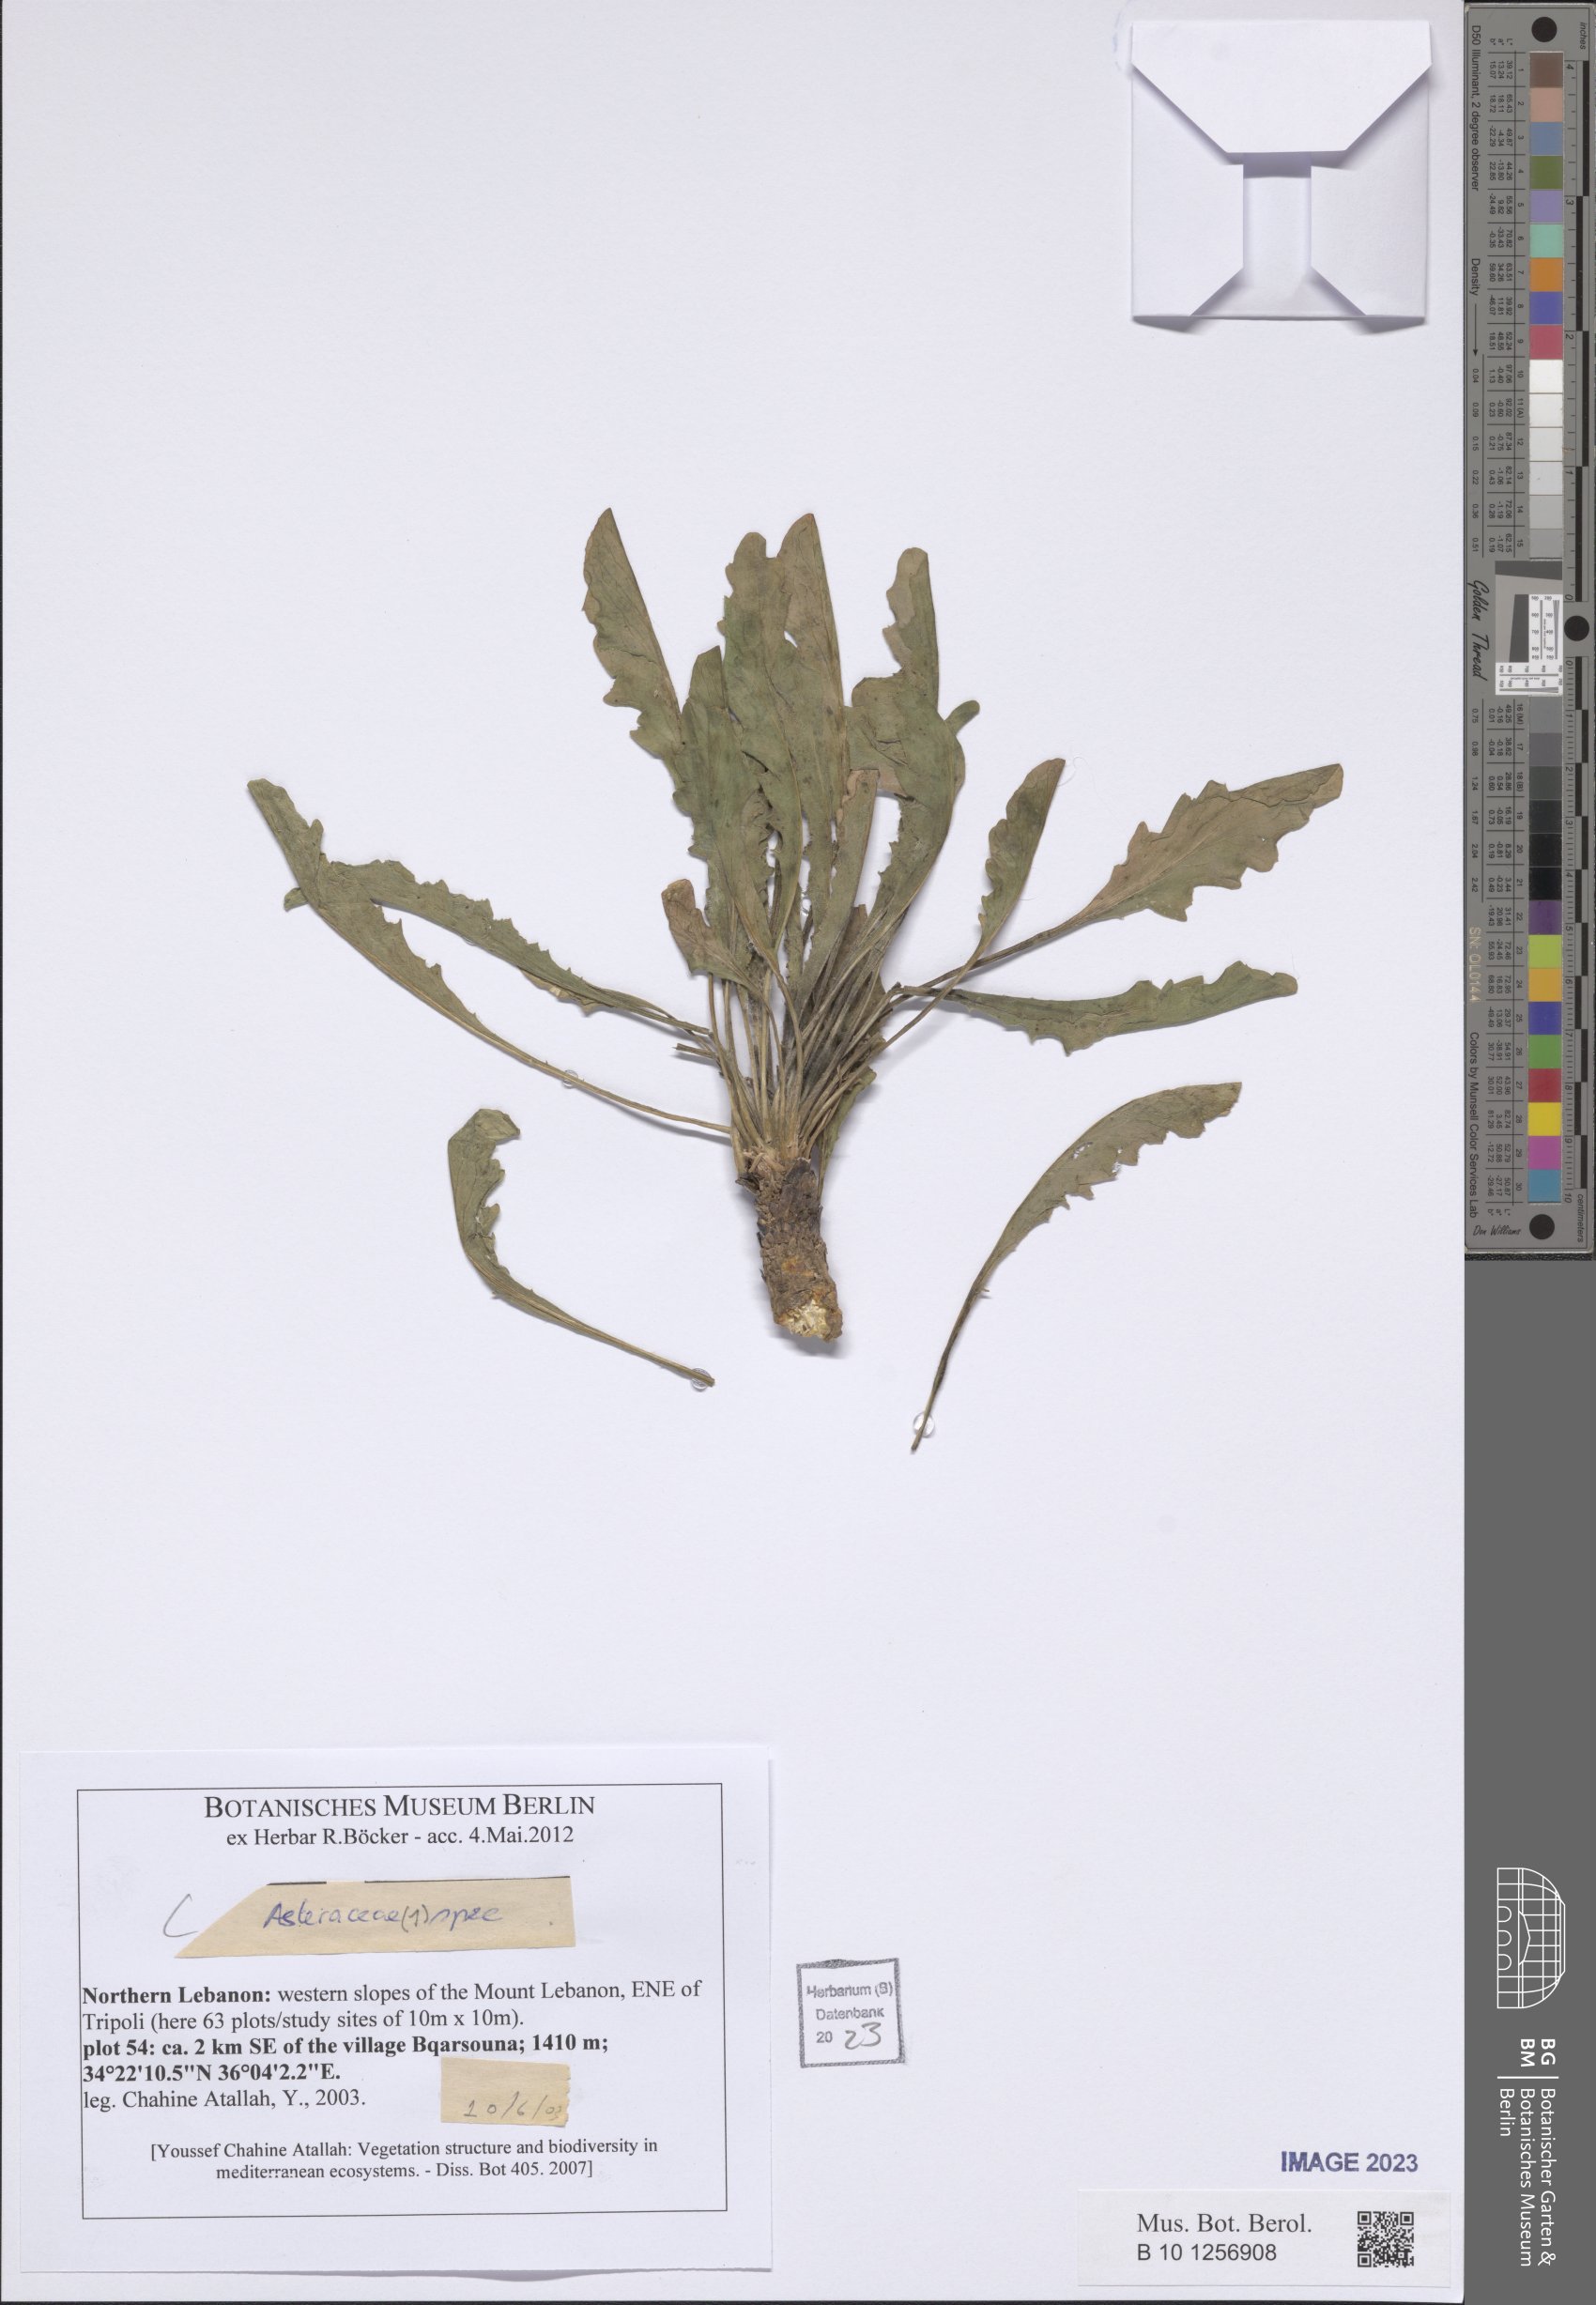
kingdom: Plantae
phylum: Tracheophyta
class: Magnoliopsida
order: Asterales
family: Asteraceae
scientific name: Asteraceae
